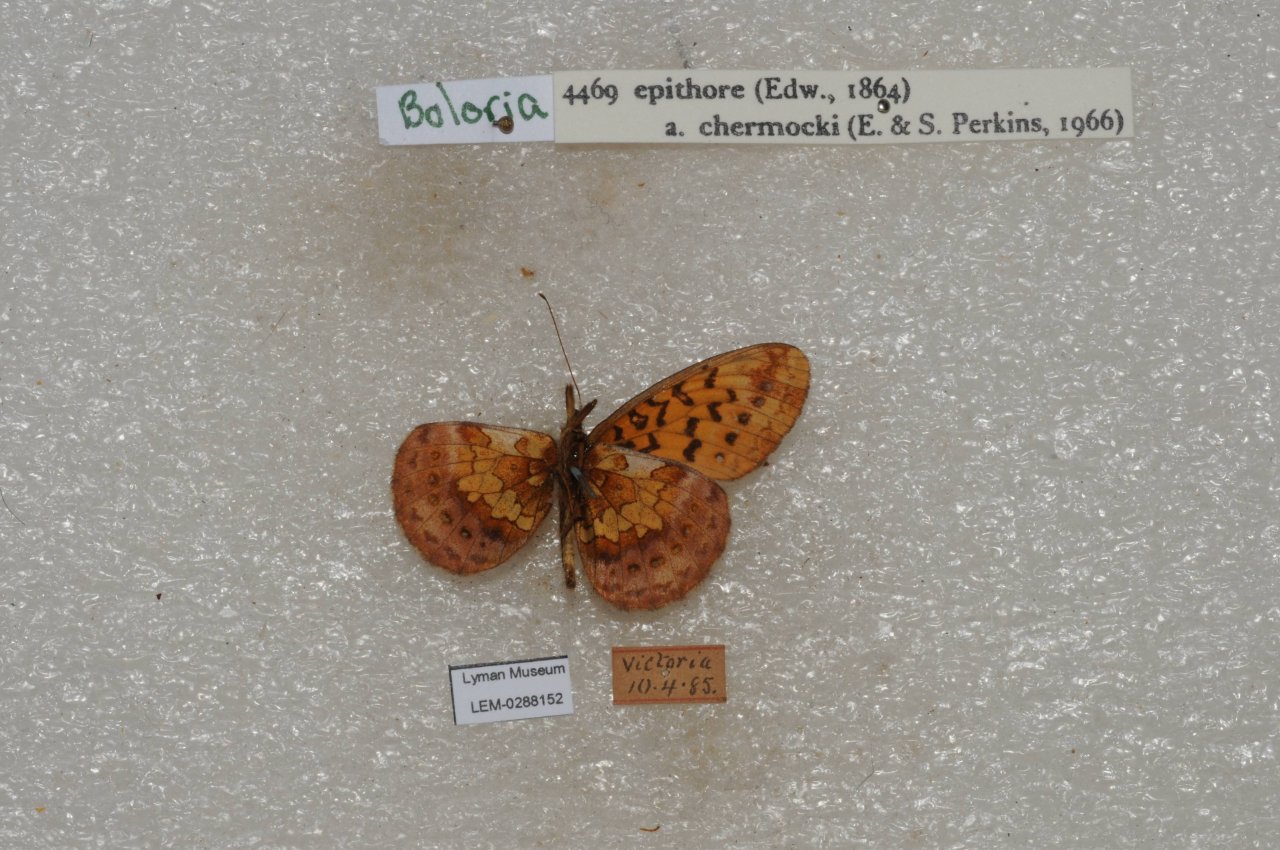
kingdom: Animalia
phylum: Arthropoda
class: Insecta
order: Lepidoptera
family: Nymphalidae
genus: Boloria
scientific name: Boloria epithore
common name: Pacific Fritillary
